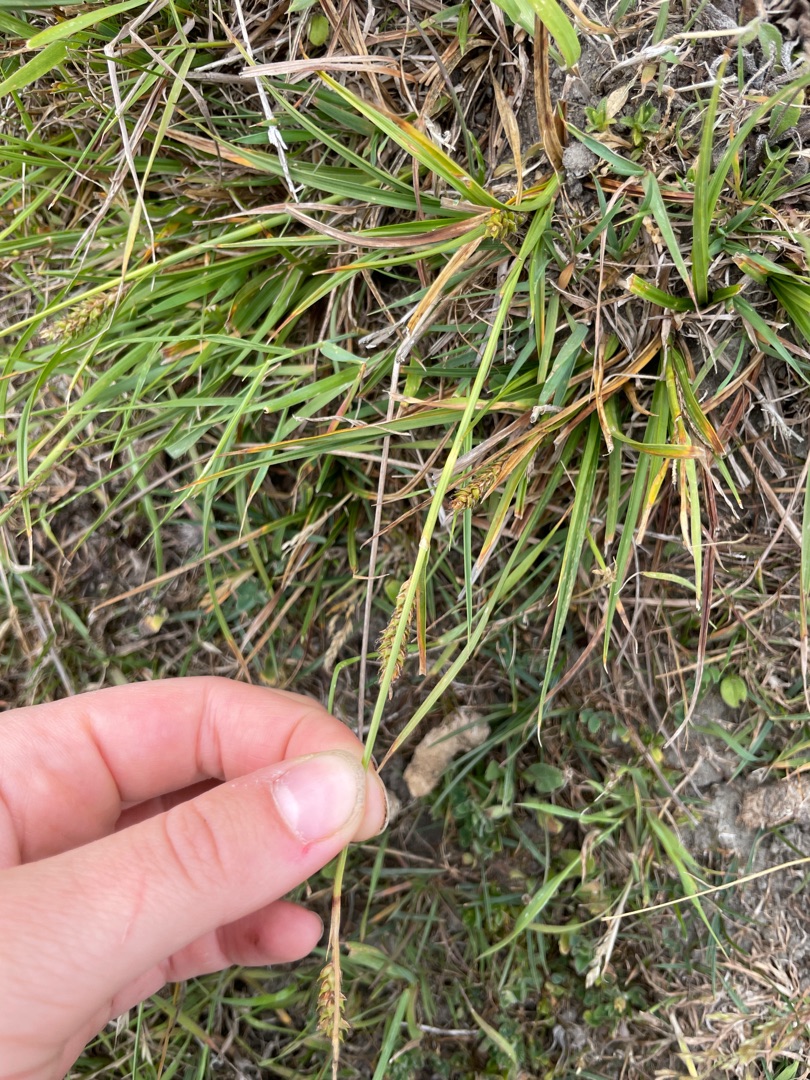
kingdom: Plantae
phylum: Tracheophyta
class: Liliopsida
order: Poales
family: Cyperaceae
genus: Carex
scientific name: Carex distans
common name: Fjernakset star
